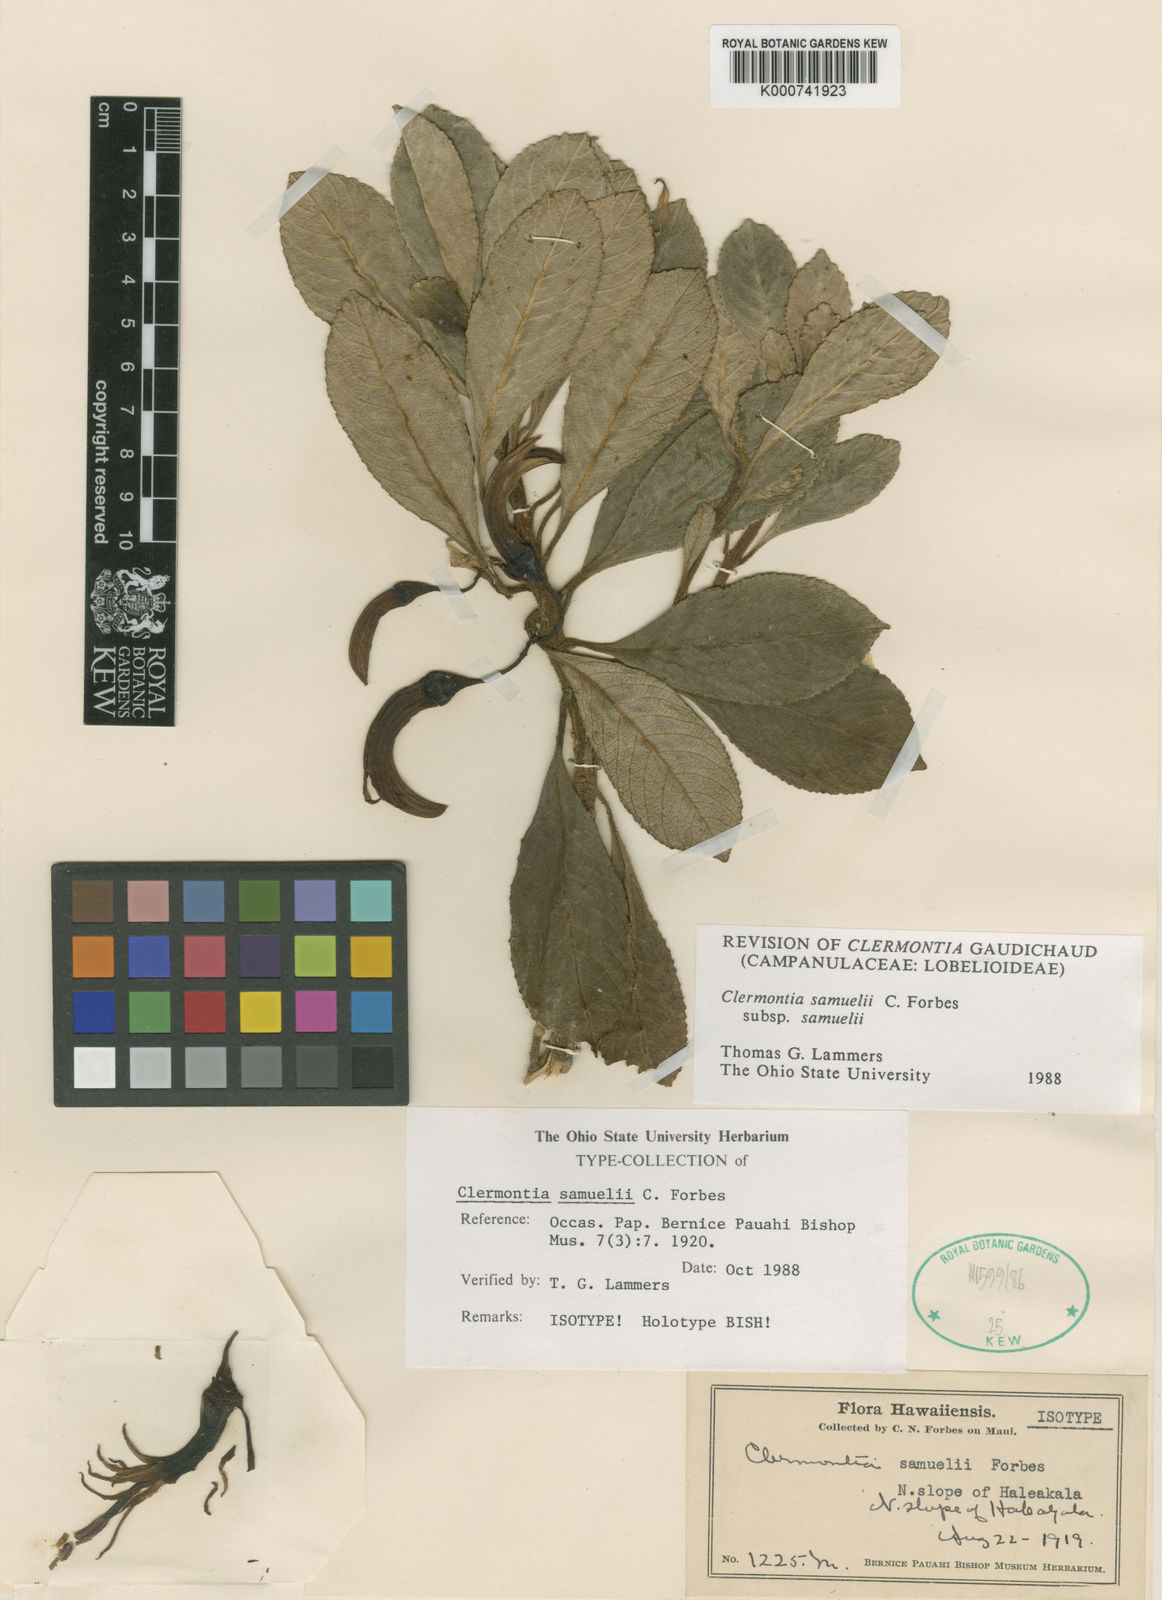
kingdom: Plantae
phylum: Tracheophyta
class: Magnoliopsida
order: Asterales
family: Campanulaceae
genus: Clermontia
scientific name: Clermontia samuelii
